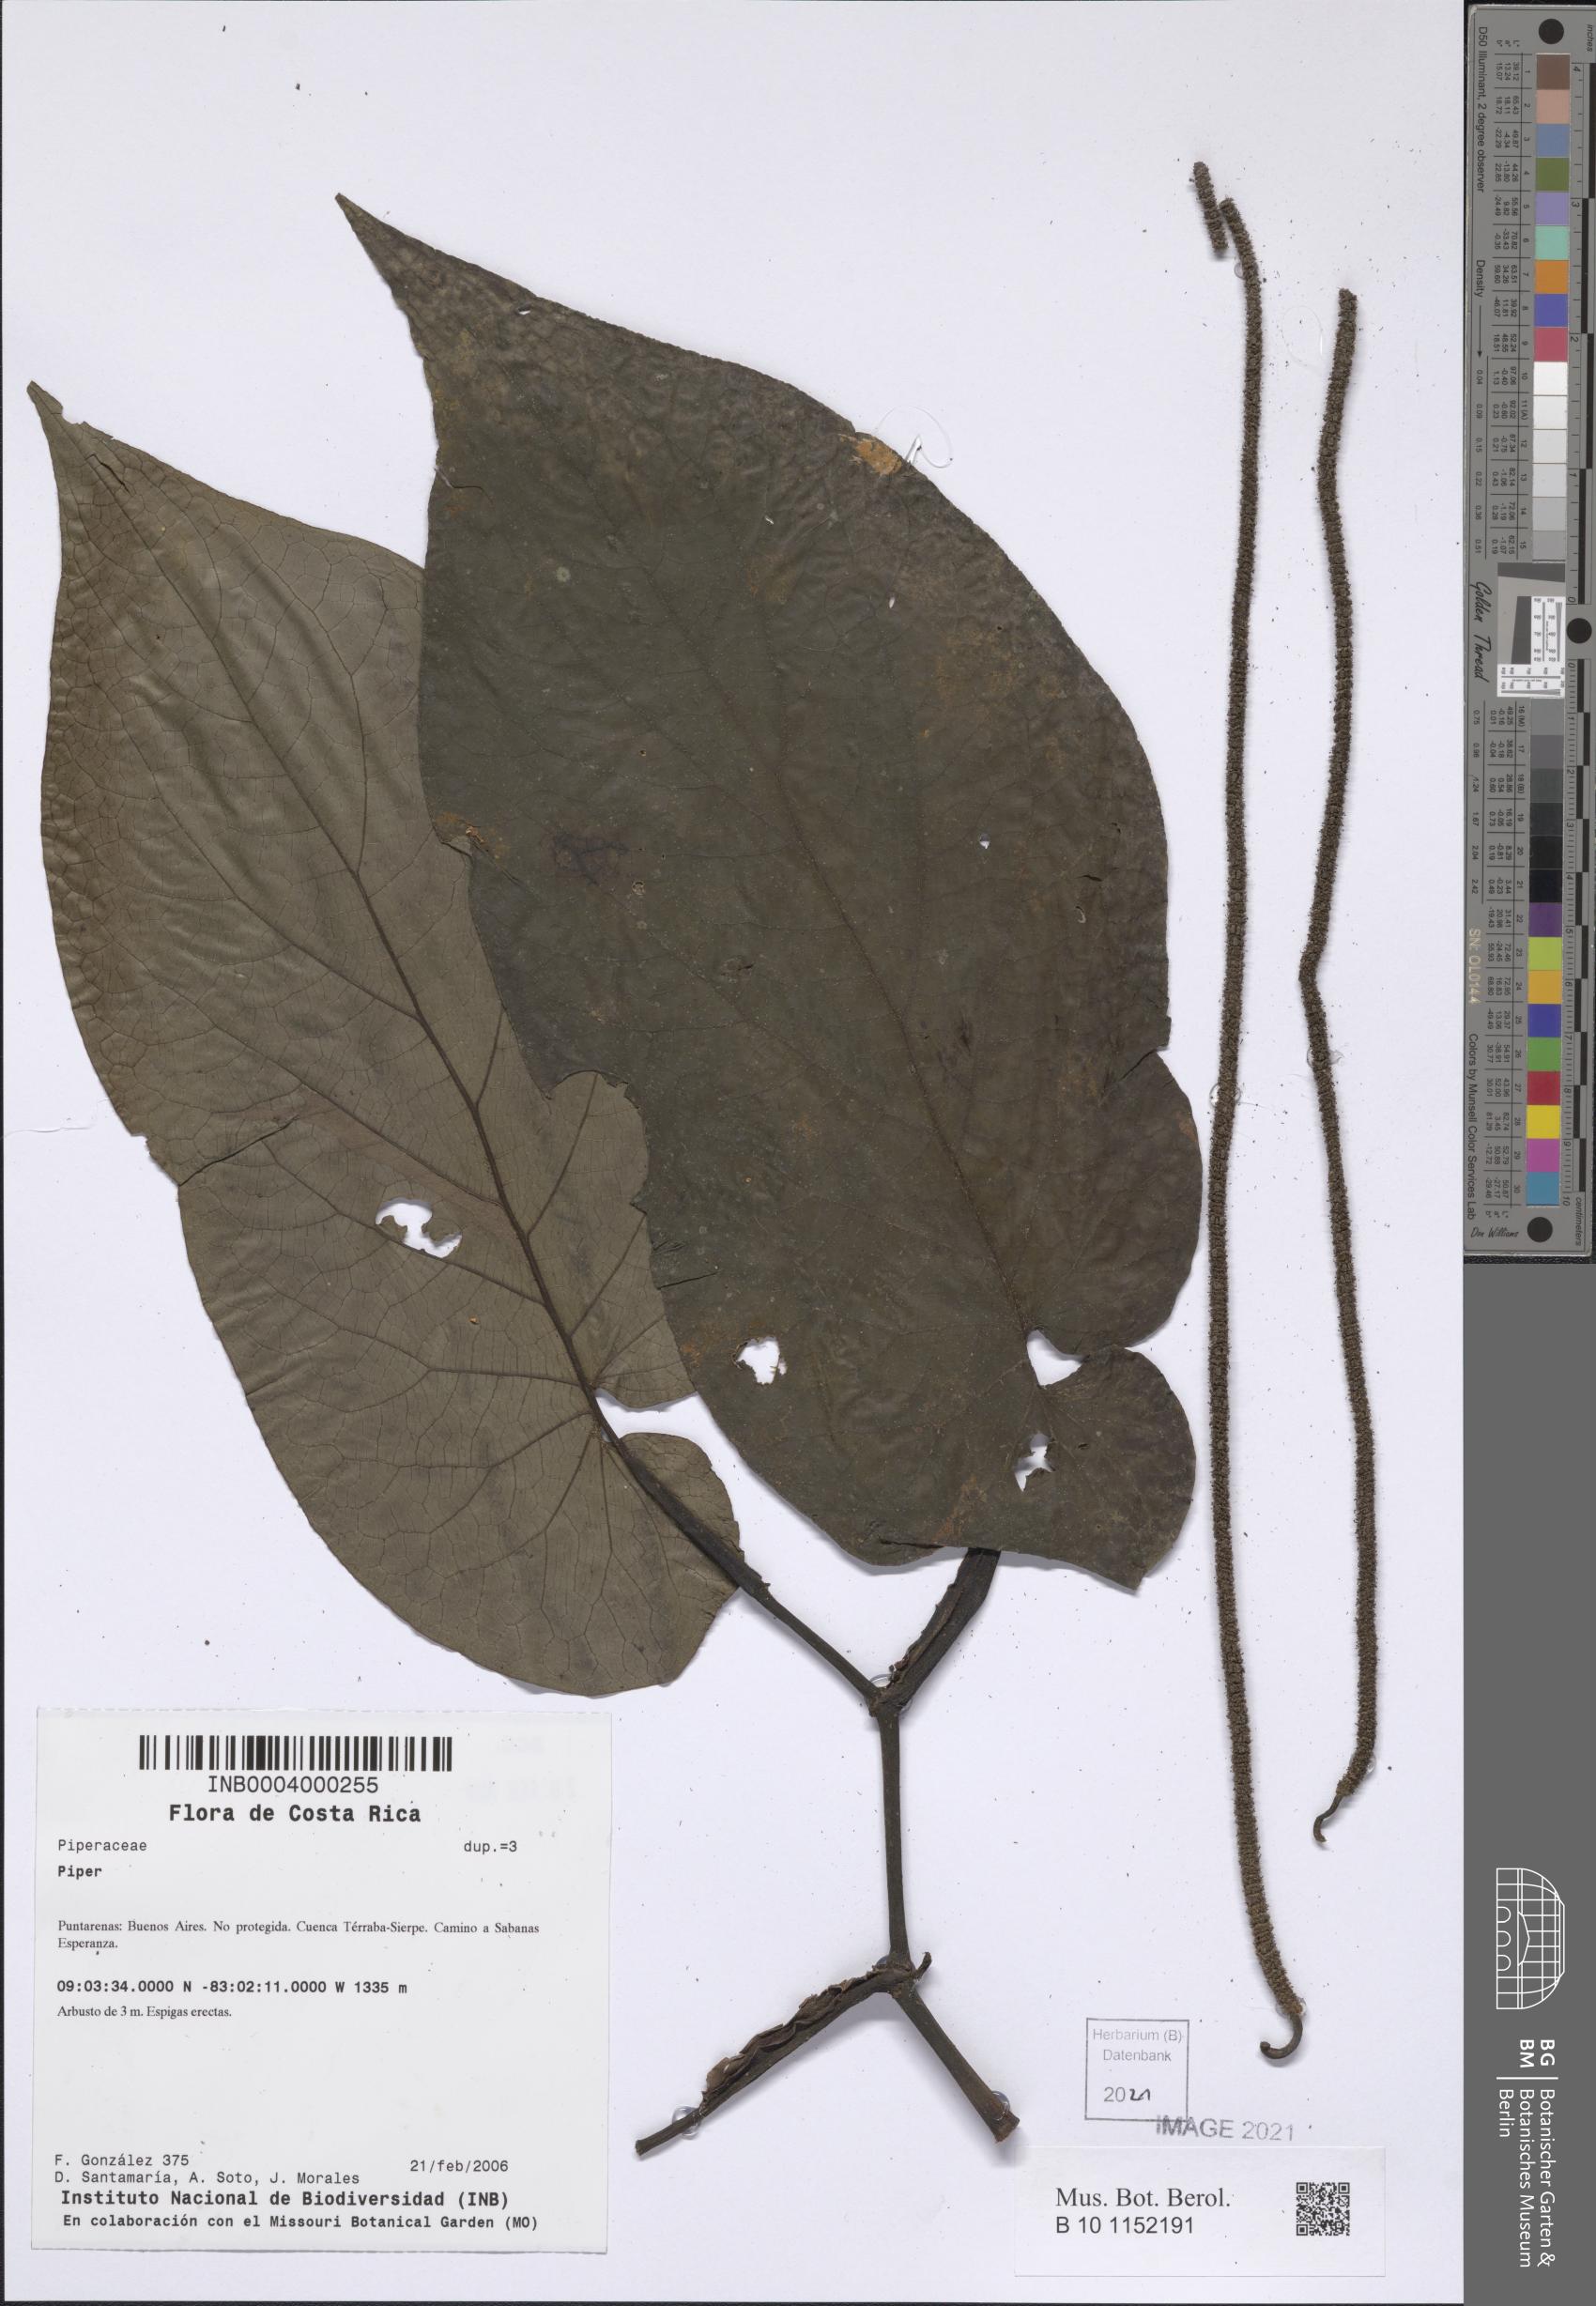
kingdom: Plantae
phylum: Tracheophyta
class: Magnoliopsida
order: Piperales
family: Piperaceae
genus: Piper
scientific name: Piper
